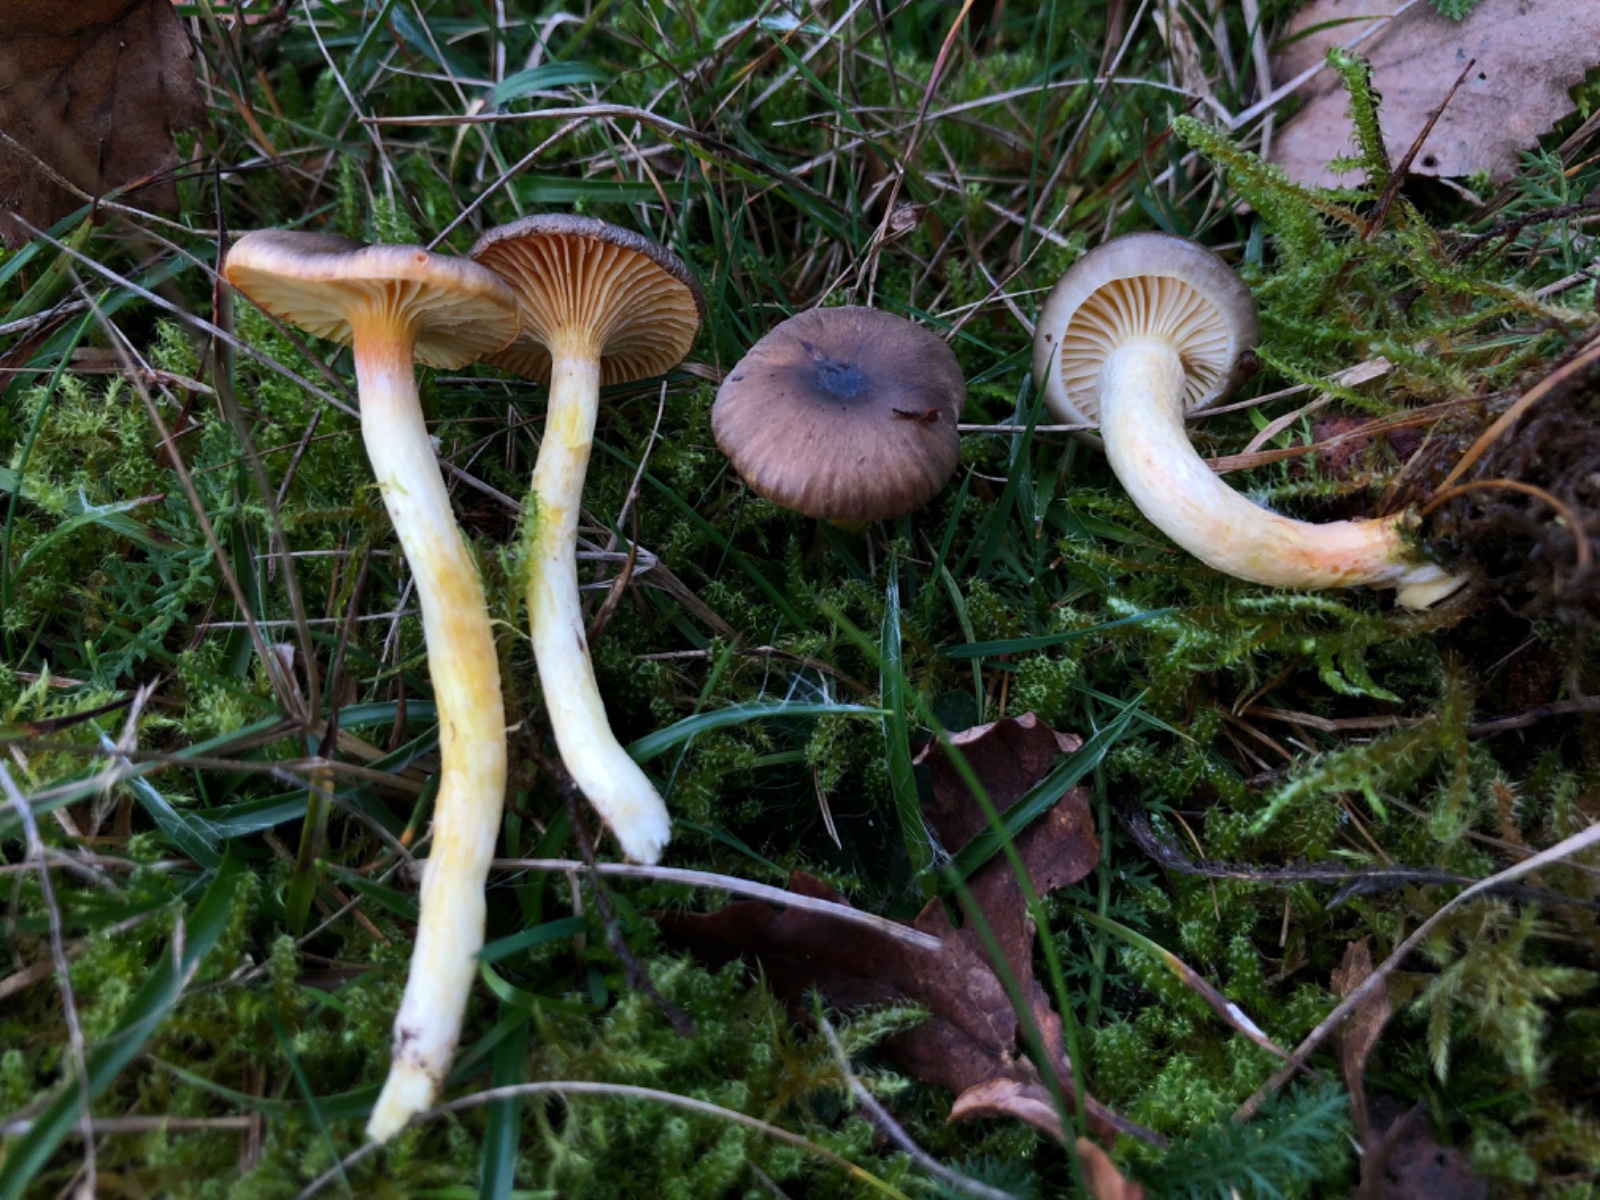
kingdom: Fungi
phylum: Basidiomycota
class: Agaricomycetes
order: Agaricales
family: Hygrophoraceae
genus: Hygrophorus
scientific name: Hygrophorus hypothejus
